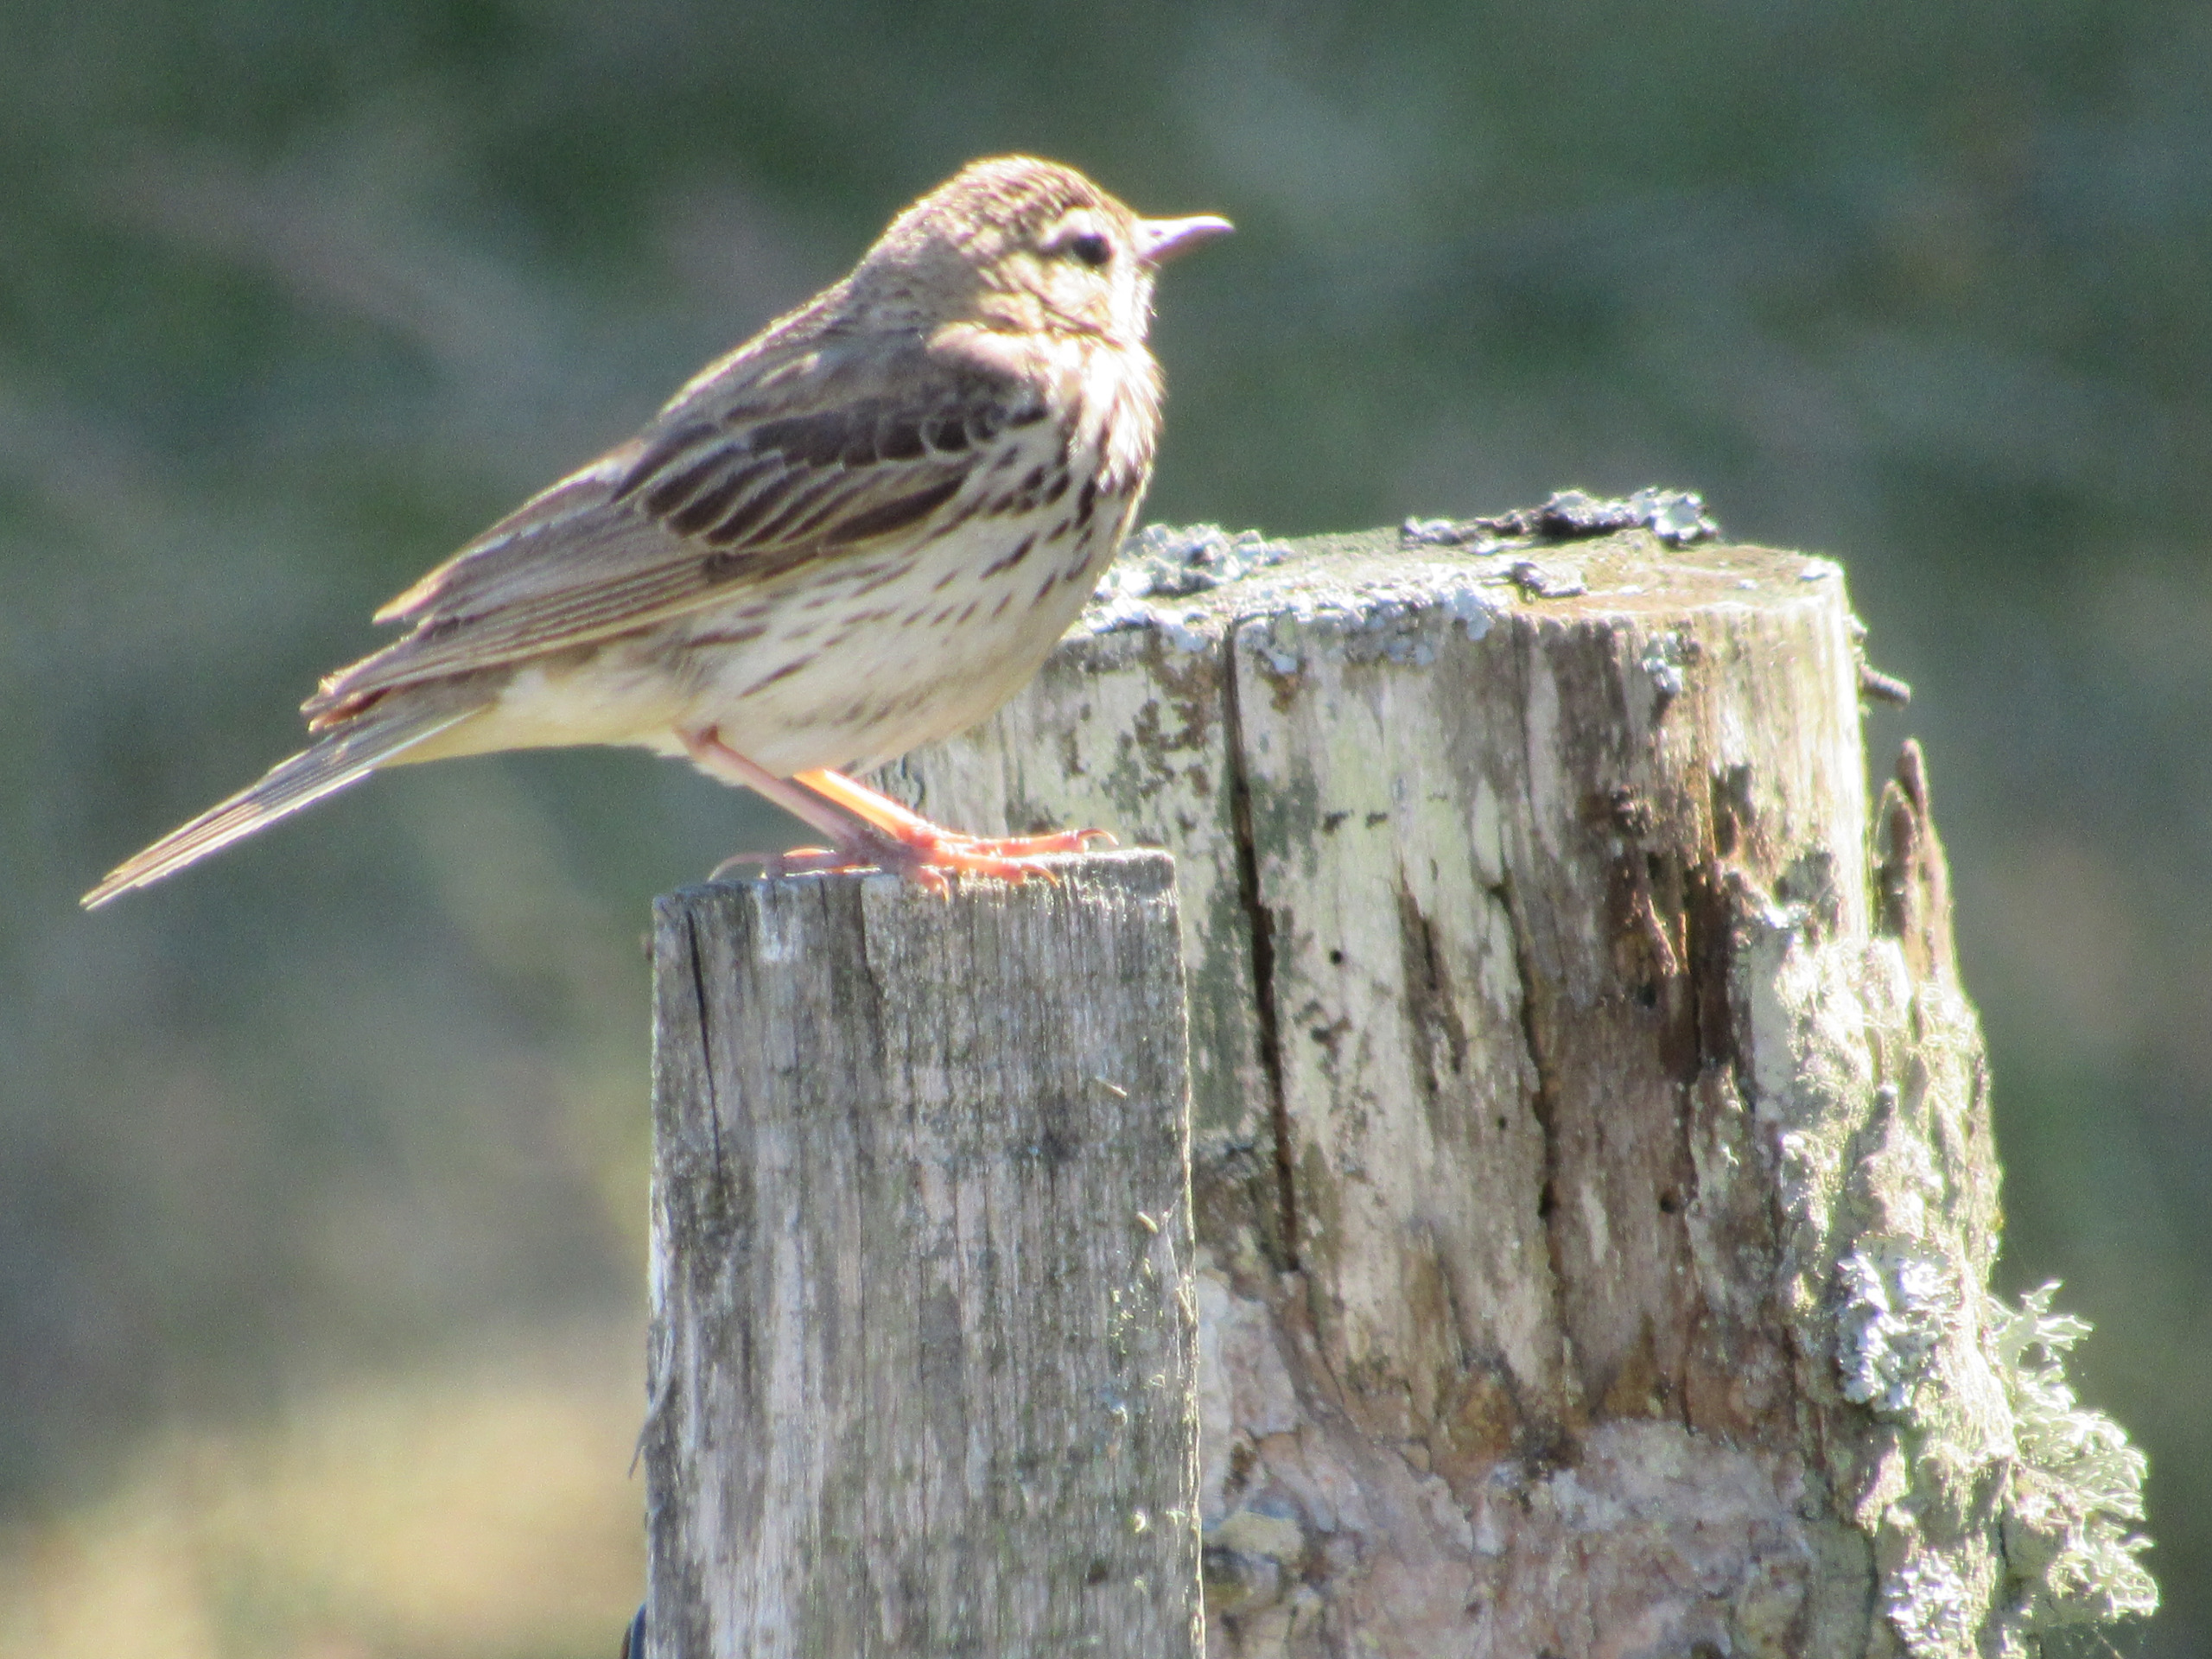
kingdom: Animalia
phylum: Chordata
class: Aves
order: Passeriformes
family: Motacillidae
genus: Anthus
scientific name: Anthus trivialis
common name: Skovpiber
